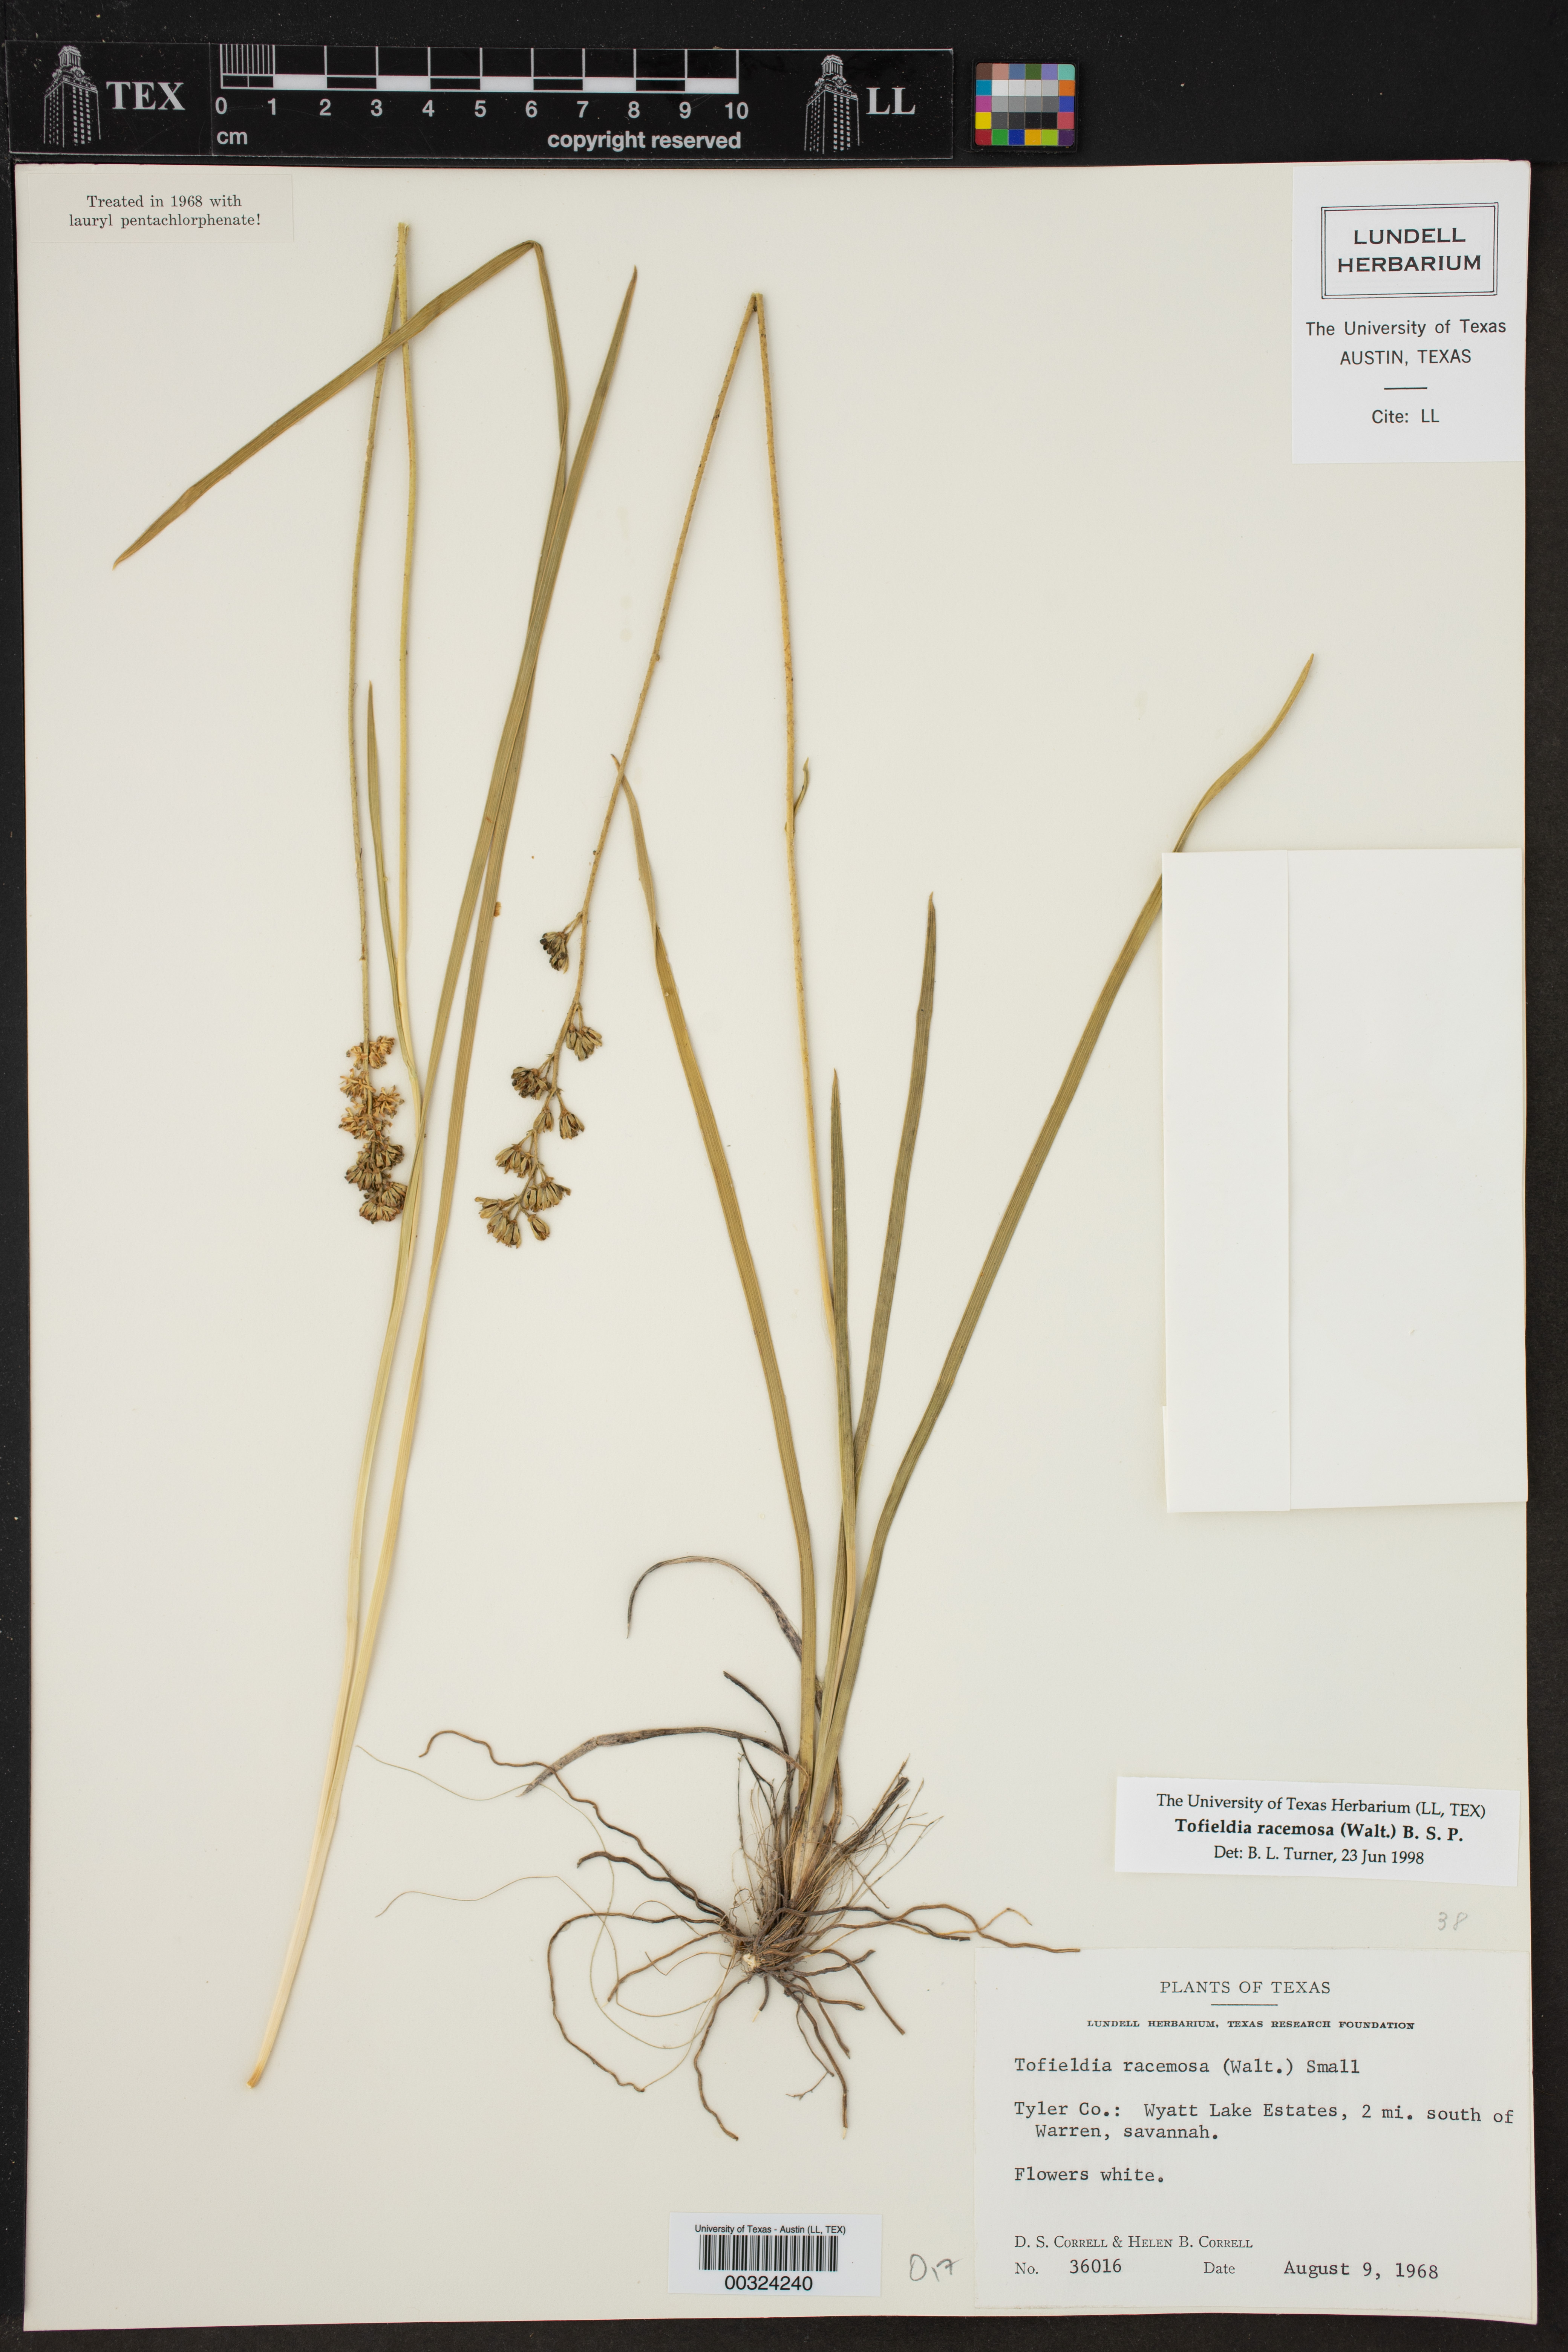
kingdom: Plantae
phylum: Tracheophyta
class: Liliopsida
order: Alismatales
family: Tofieldiaceae
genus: Tofieldia
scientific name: Tofieldia calyculata
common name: German-asphodel
